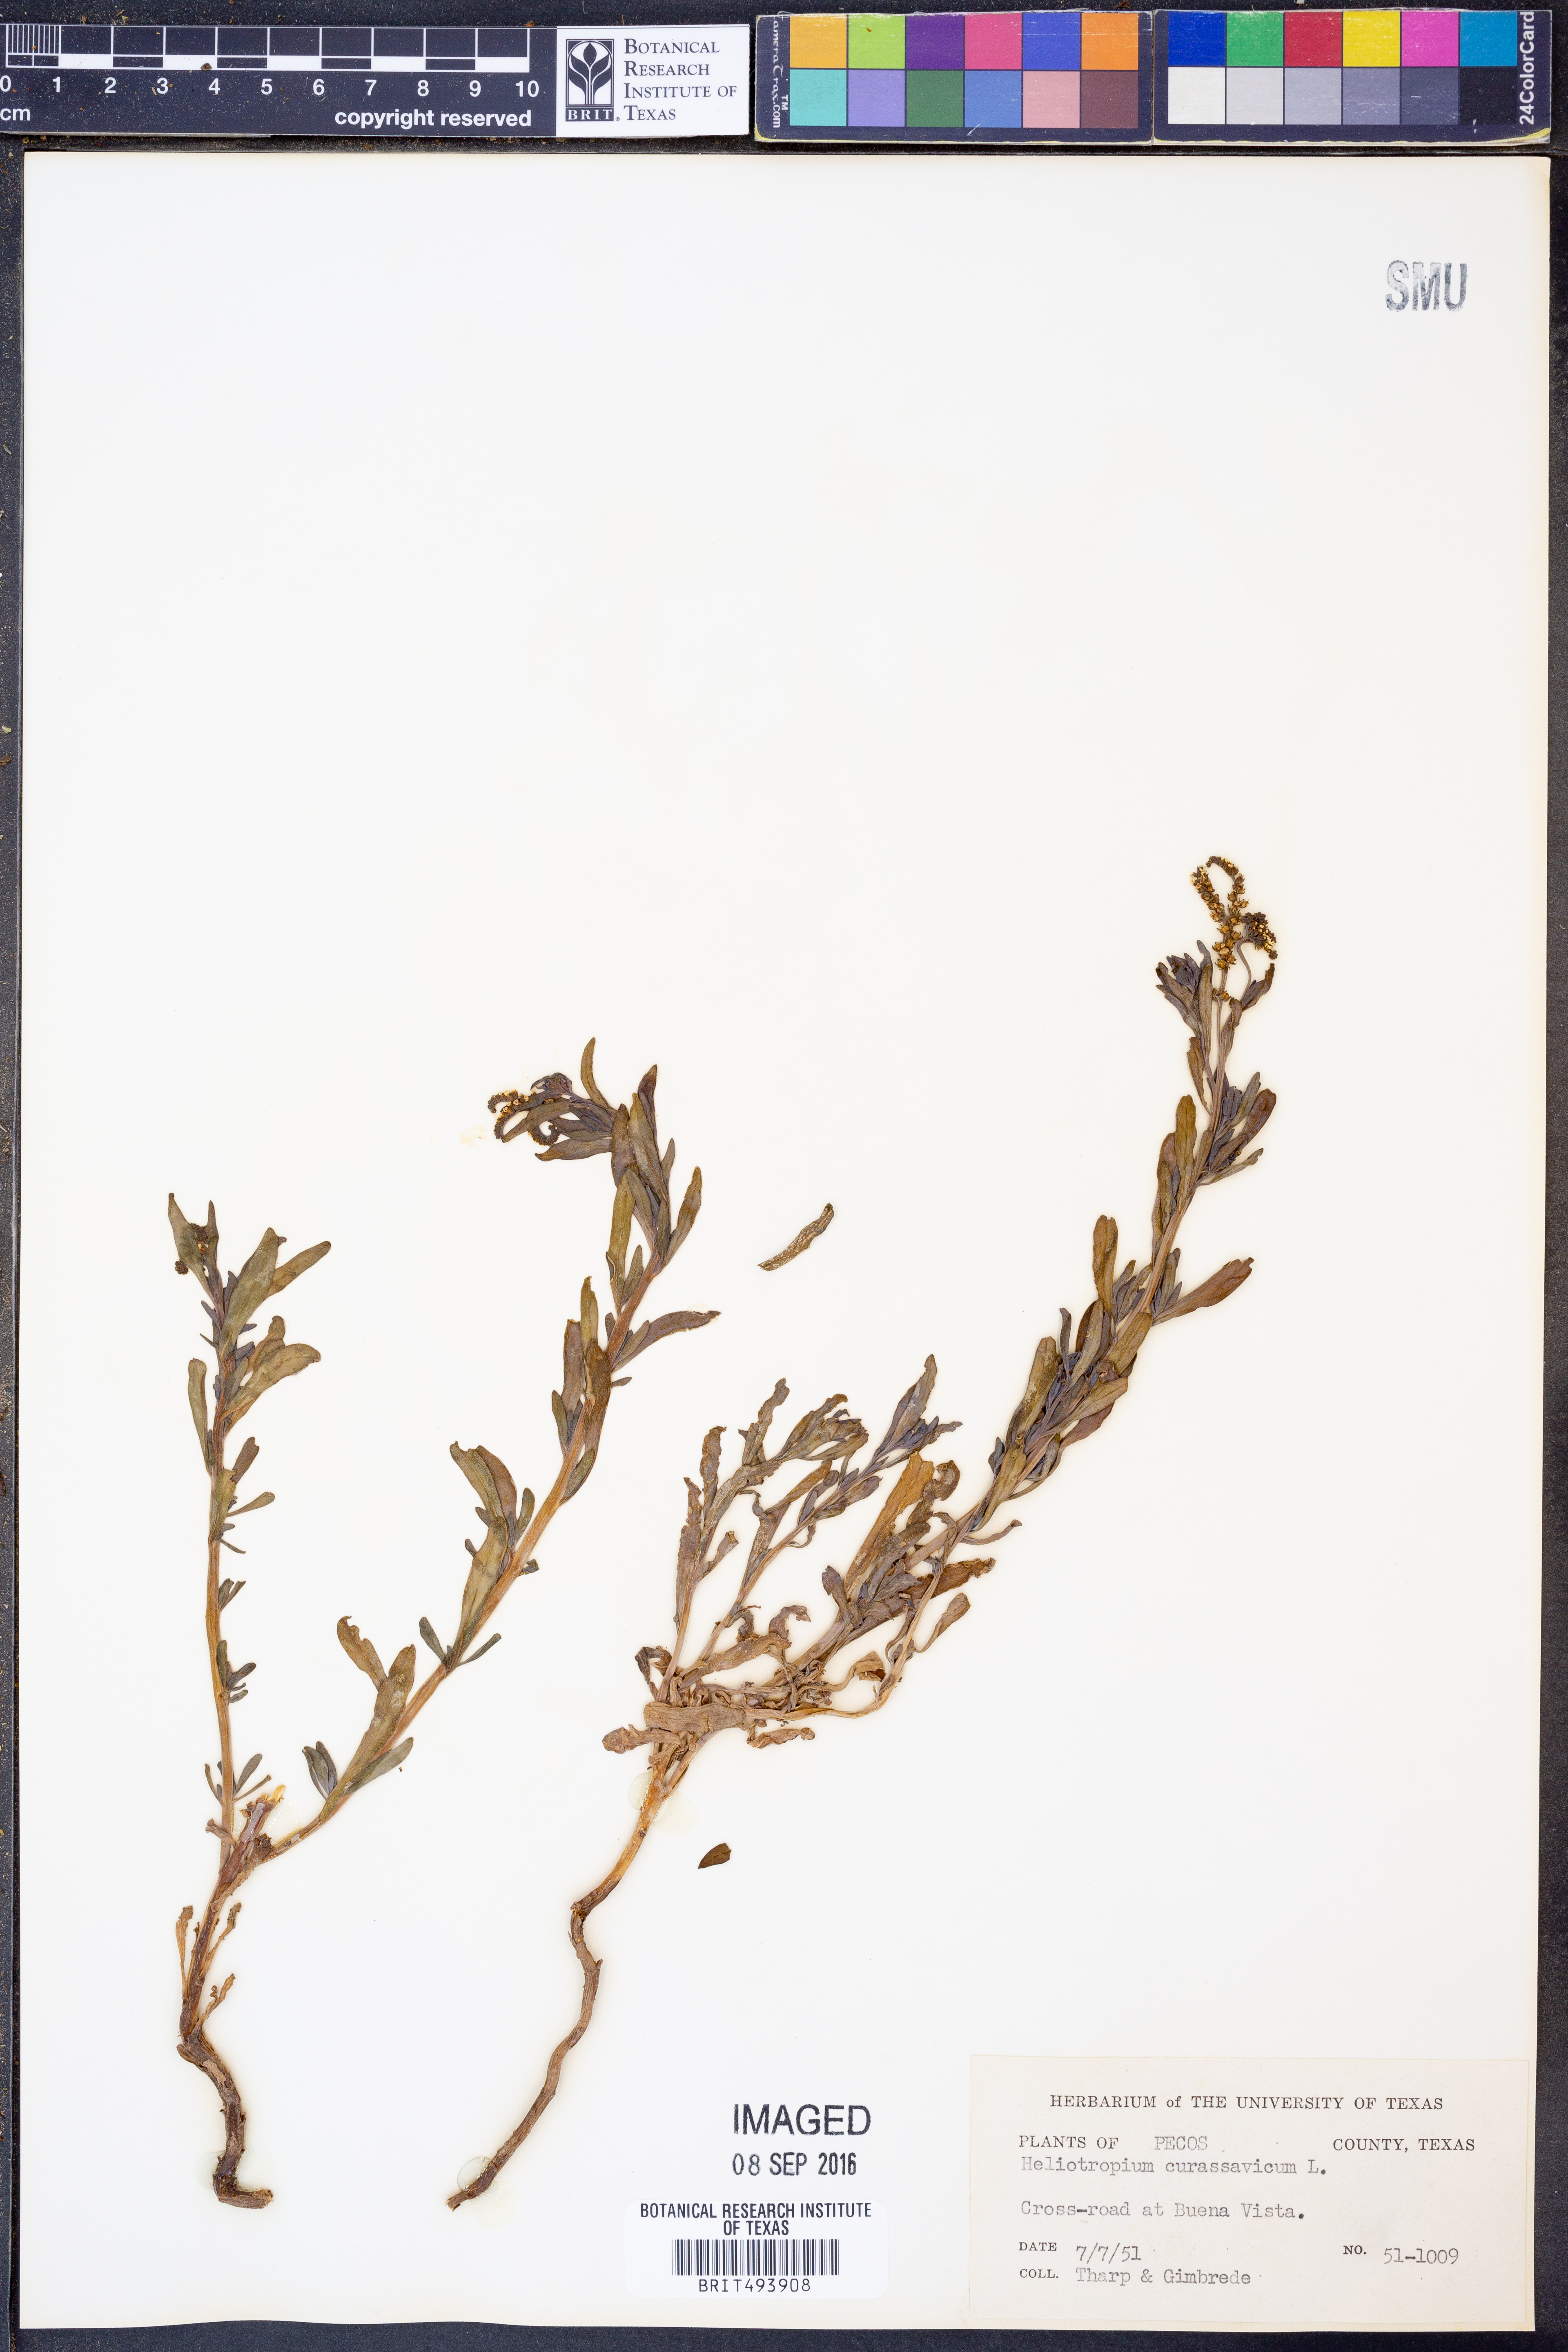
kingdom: Plantae
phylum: Tracheophyta
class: Magnoliopsida
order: Boraginales
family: Heliotropiaceae
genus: Heliotropium
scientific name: Heliotropium curassavicum
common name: Seaside heliotrope
